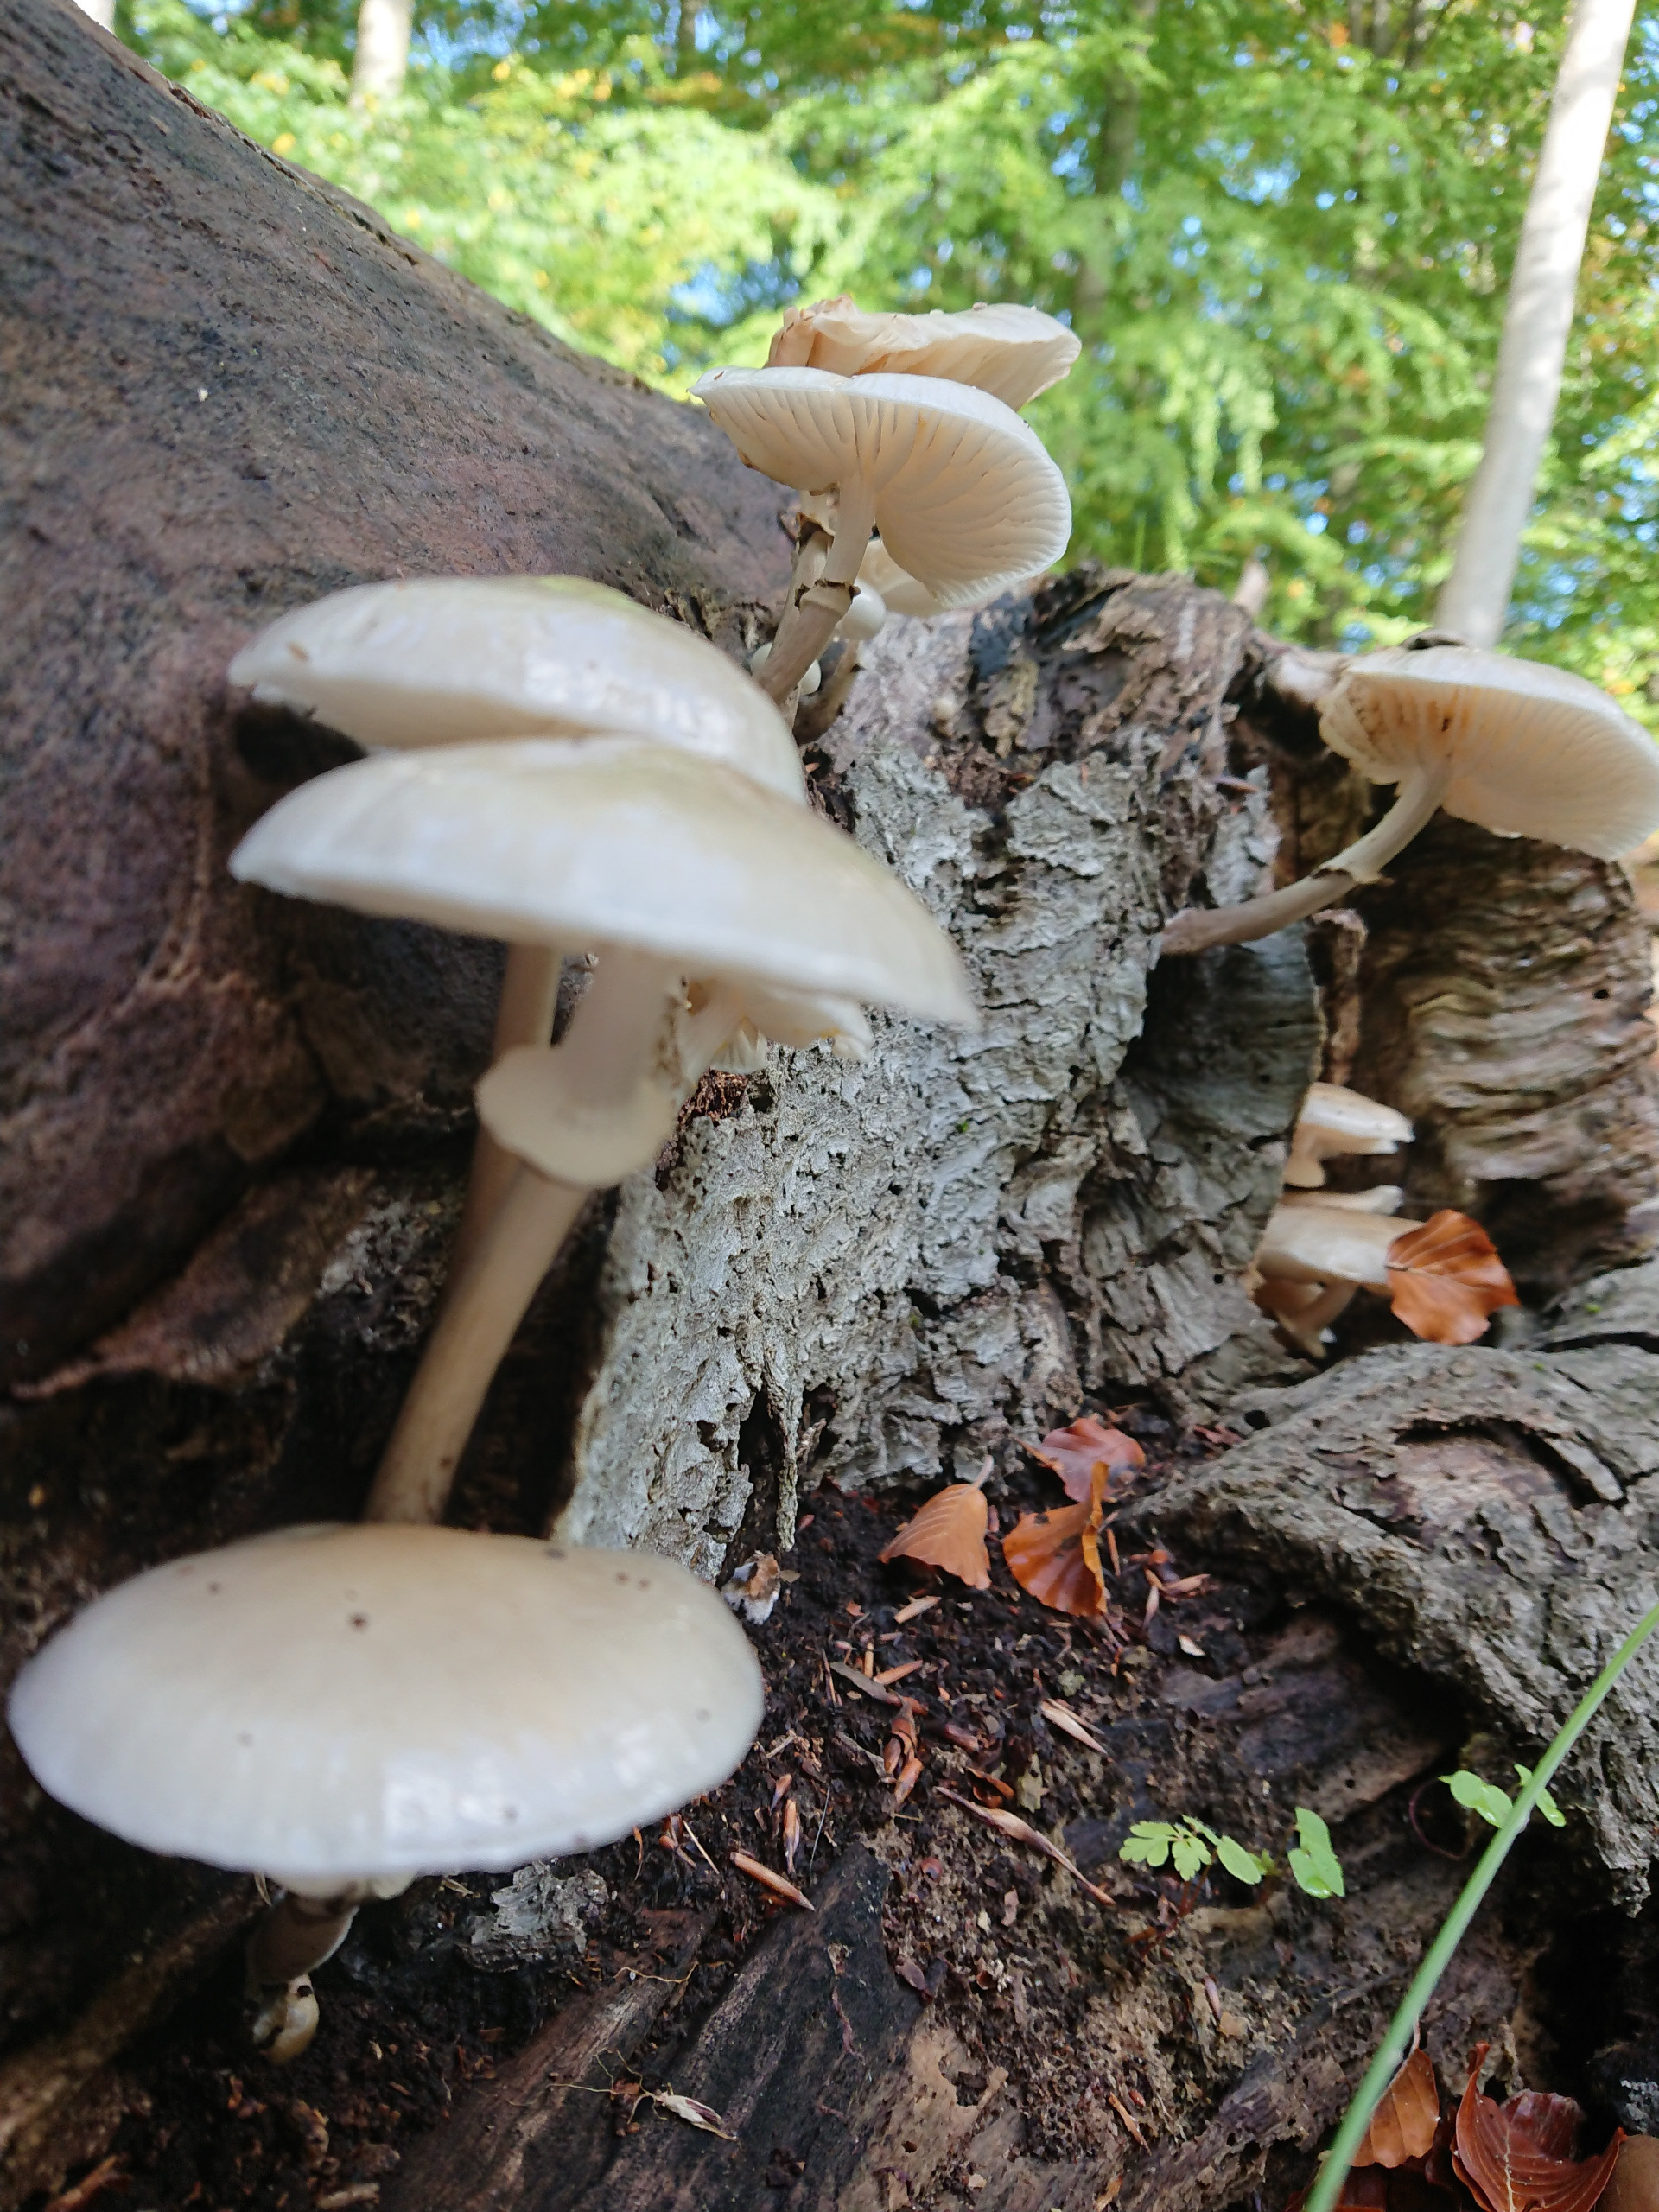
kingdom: Fungi
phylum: Basidiomycota
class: Agaricomycetes
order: Agaricales
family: Physalacriaceae
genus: Mucidula
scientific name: Mucidula mucida
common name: Porcelænshat
